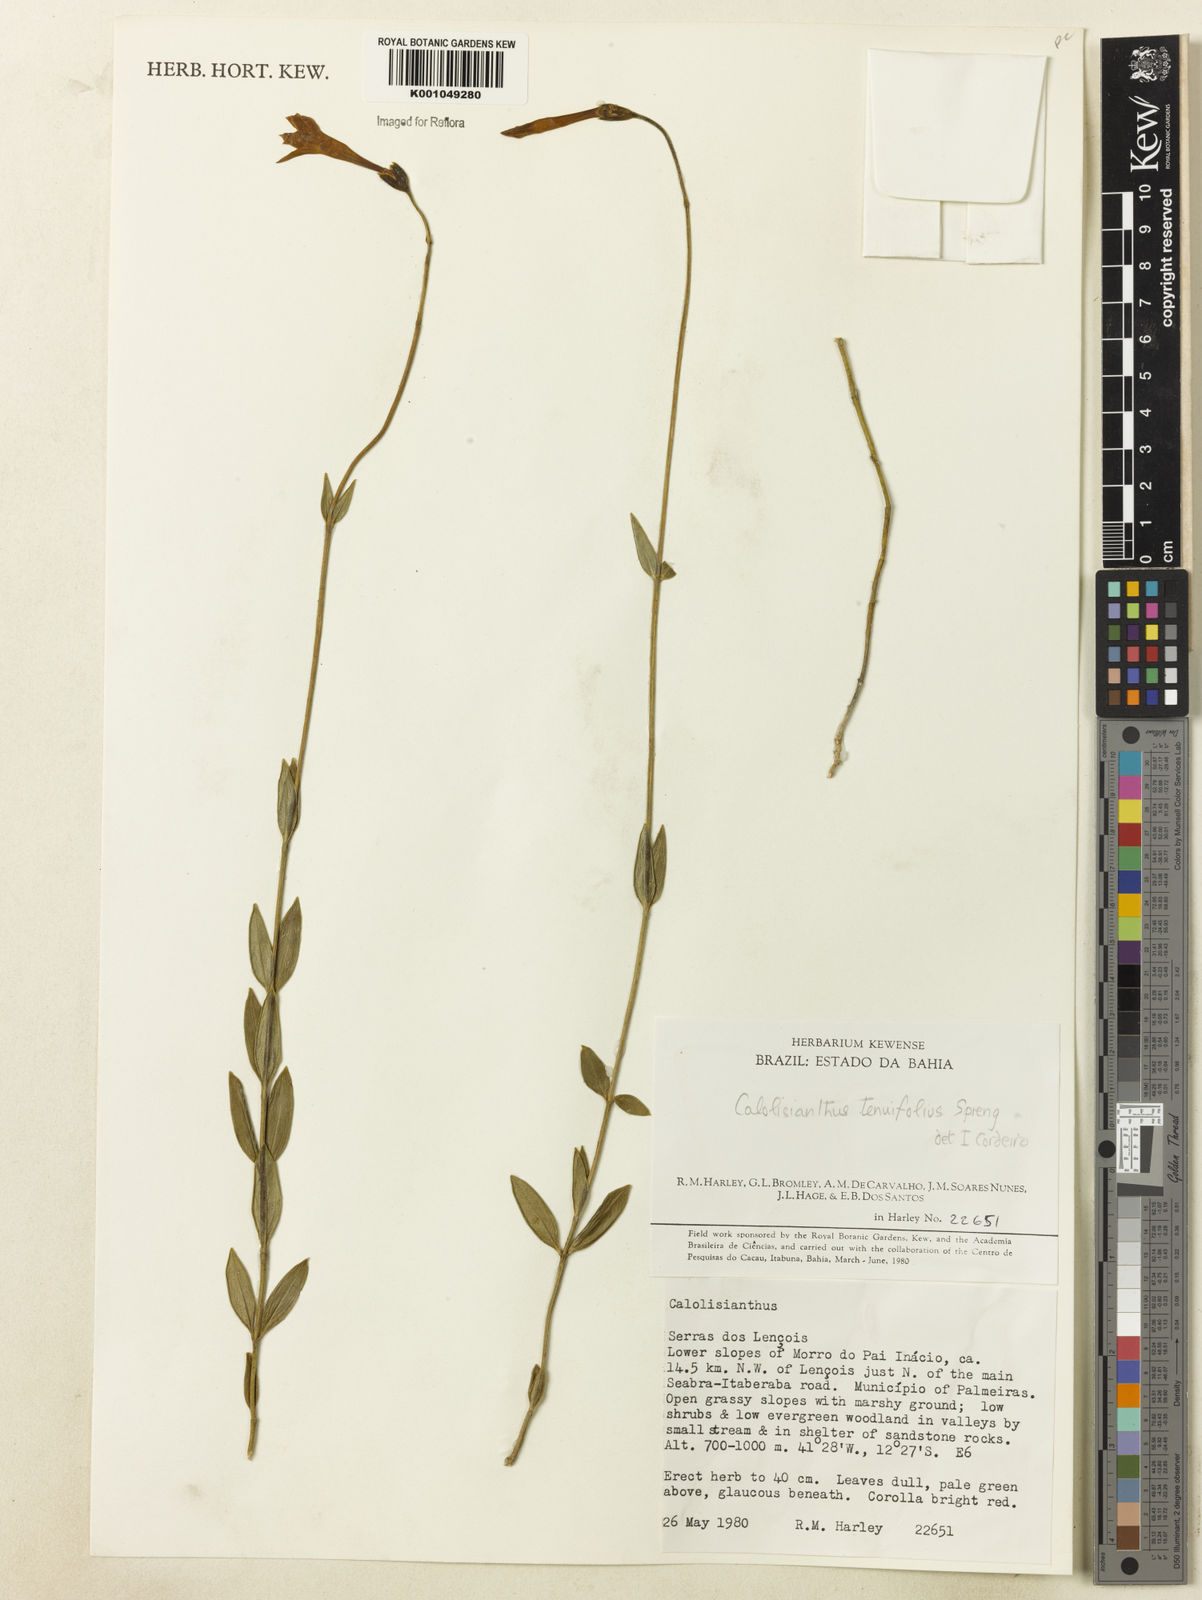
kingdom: Plantae
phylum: Tracheophyta
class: Magnoliopsida
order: Gentianales
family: Gentianaceae
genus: Calolisianthus
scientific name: Calolisianthus
